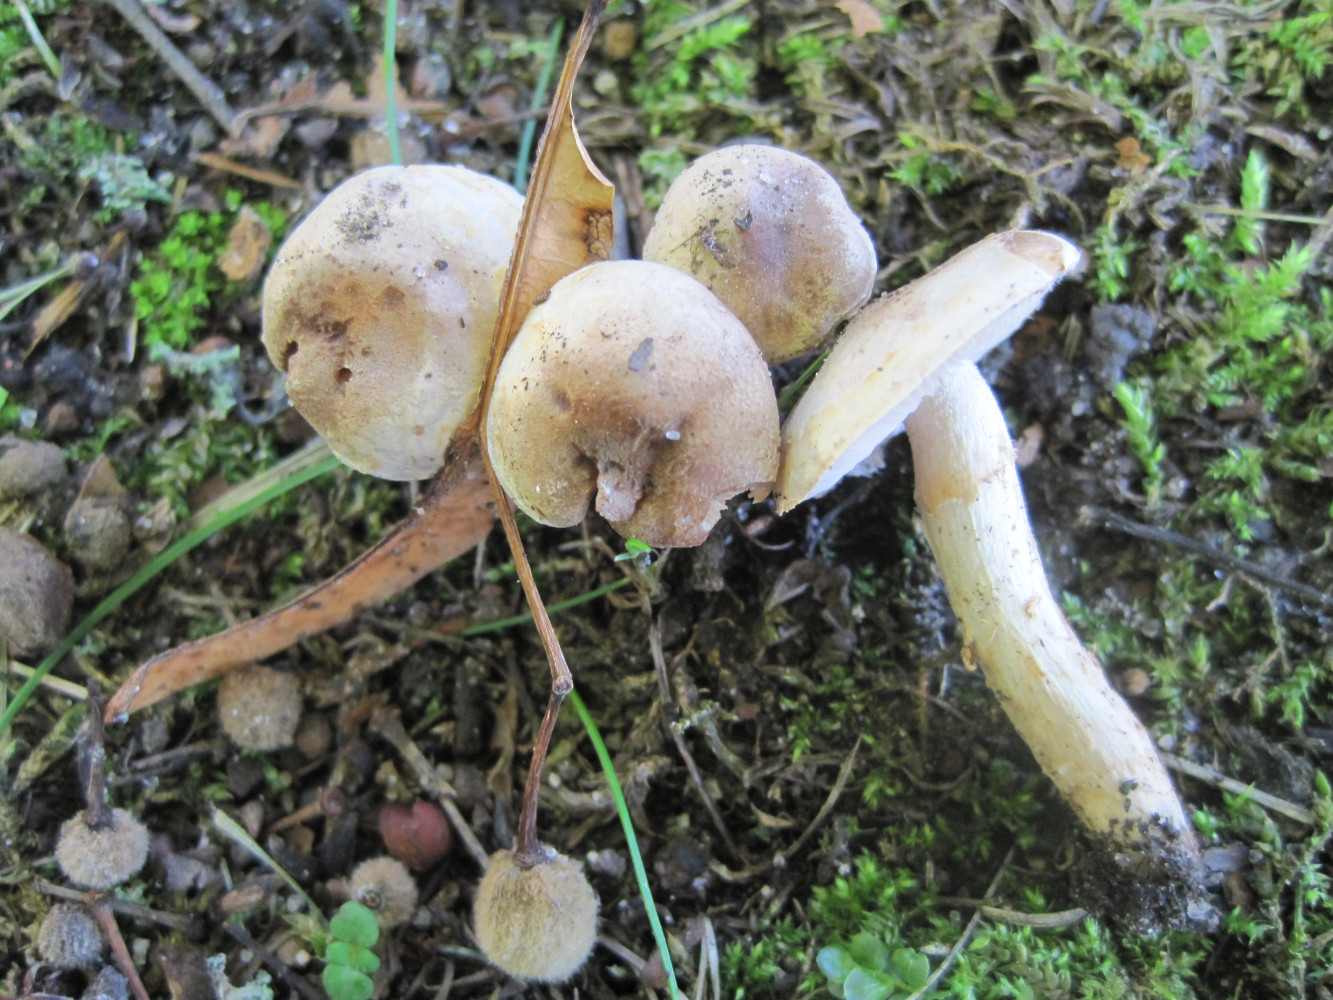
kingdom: Fungi
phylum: Basidiomycota
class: Agaricomycetes
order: Agaricales
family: Hymenogastraceae
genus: Hebeloma
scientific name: Hebeloma mesophaeum
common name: lerbrun tåreblad
